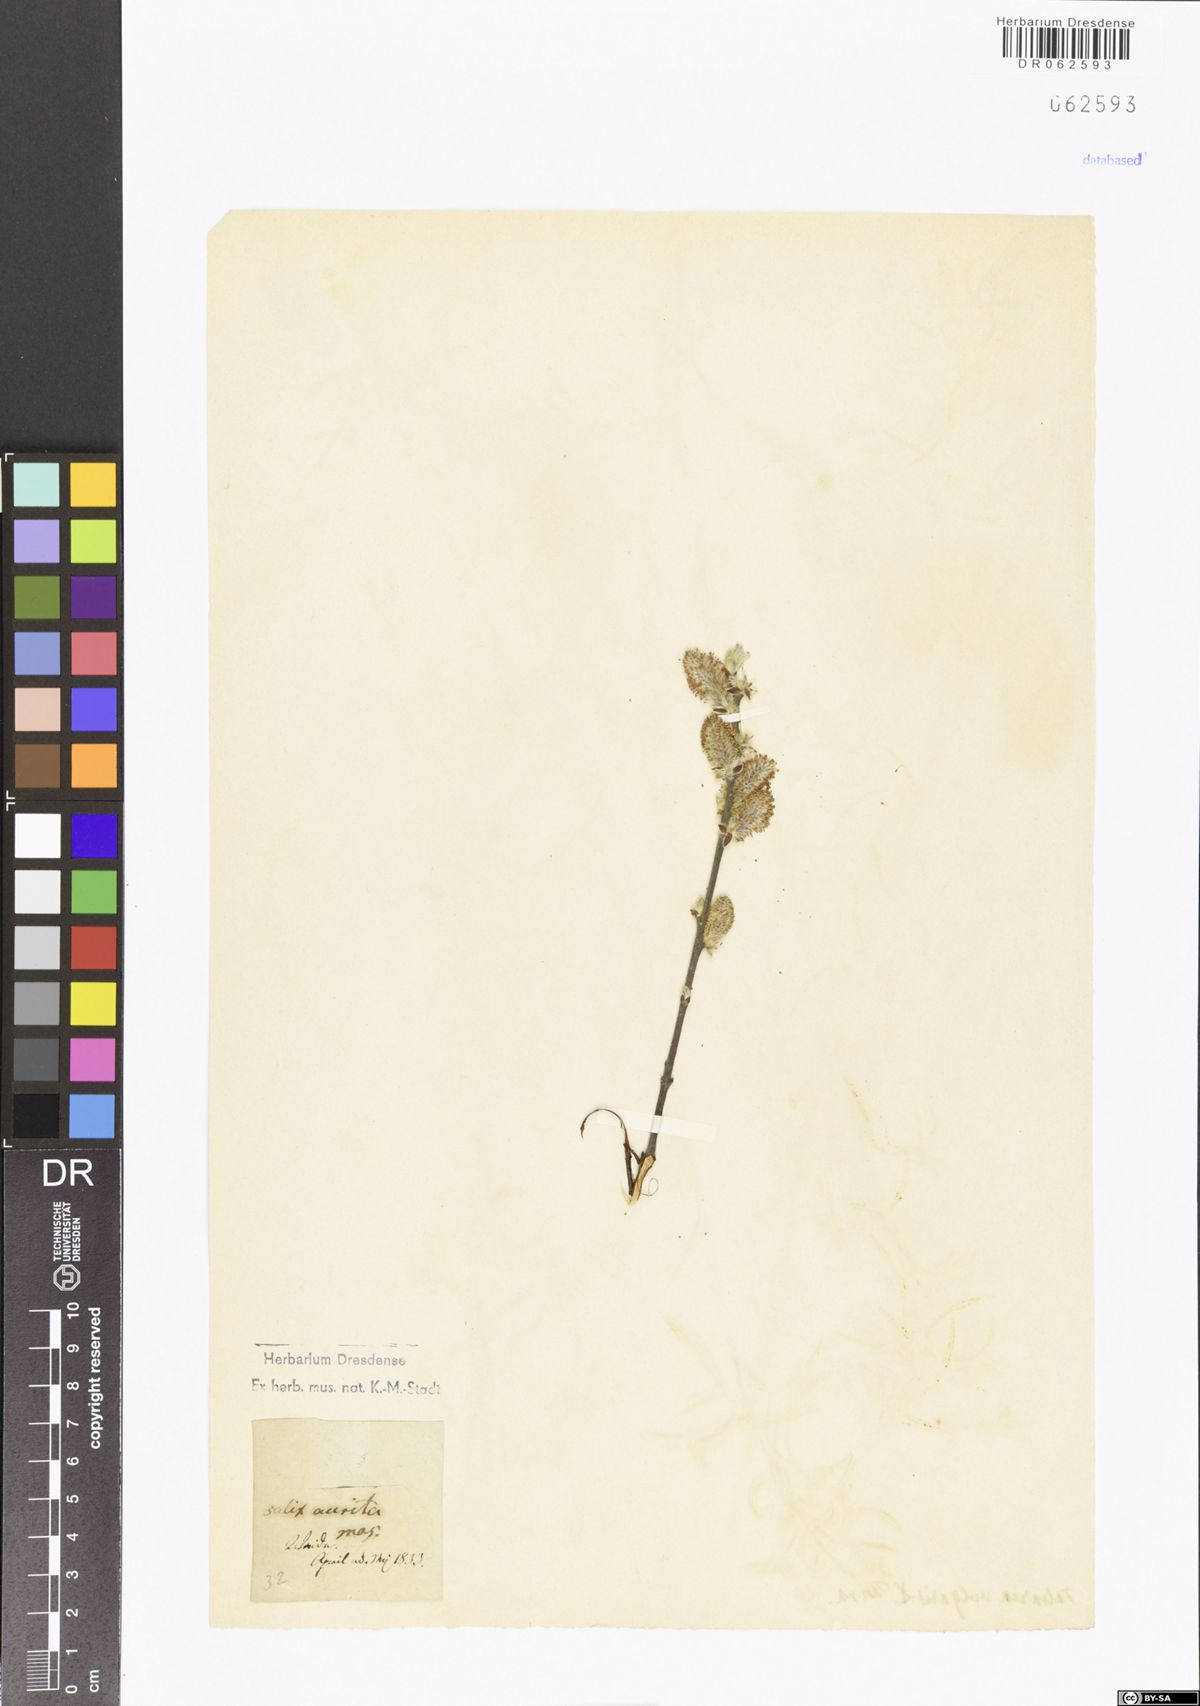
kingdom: Plantae
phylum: Tracheophyta
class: Magnoliopsida
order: Malpighiales
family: Salicaceae
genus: Salix
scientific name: Salix aurita
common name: Eared willow
